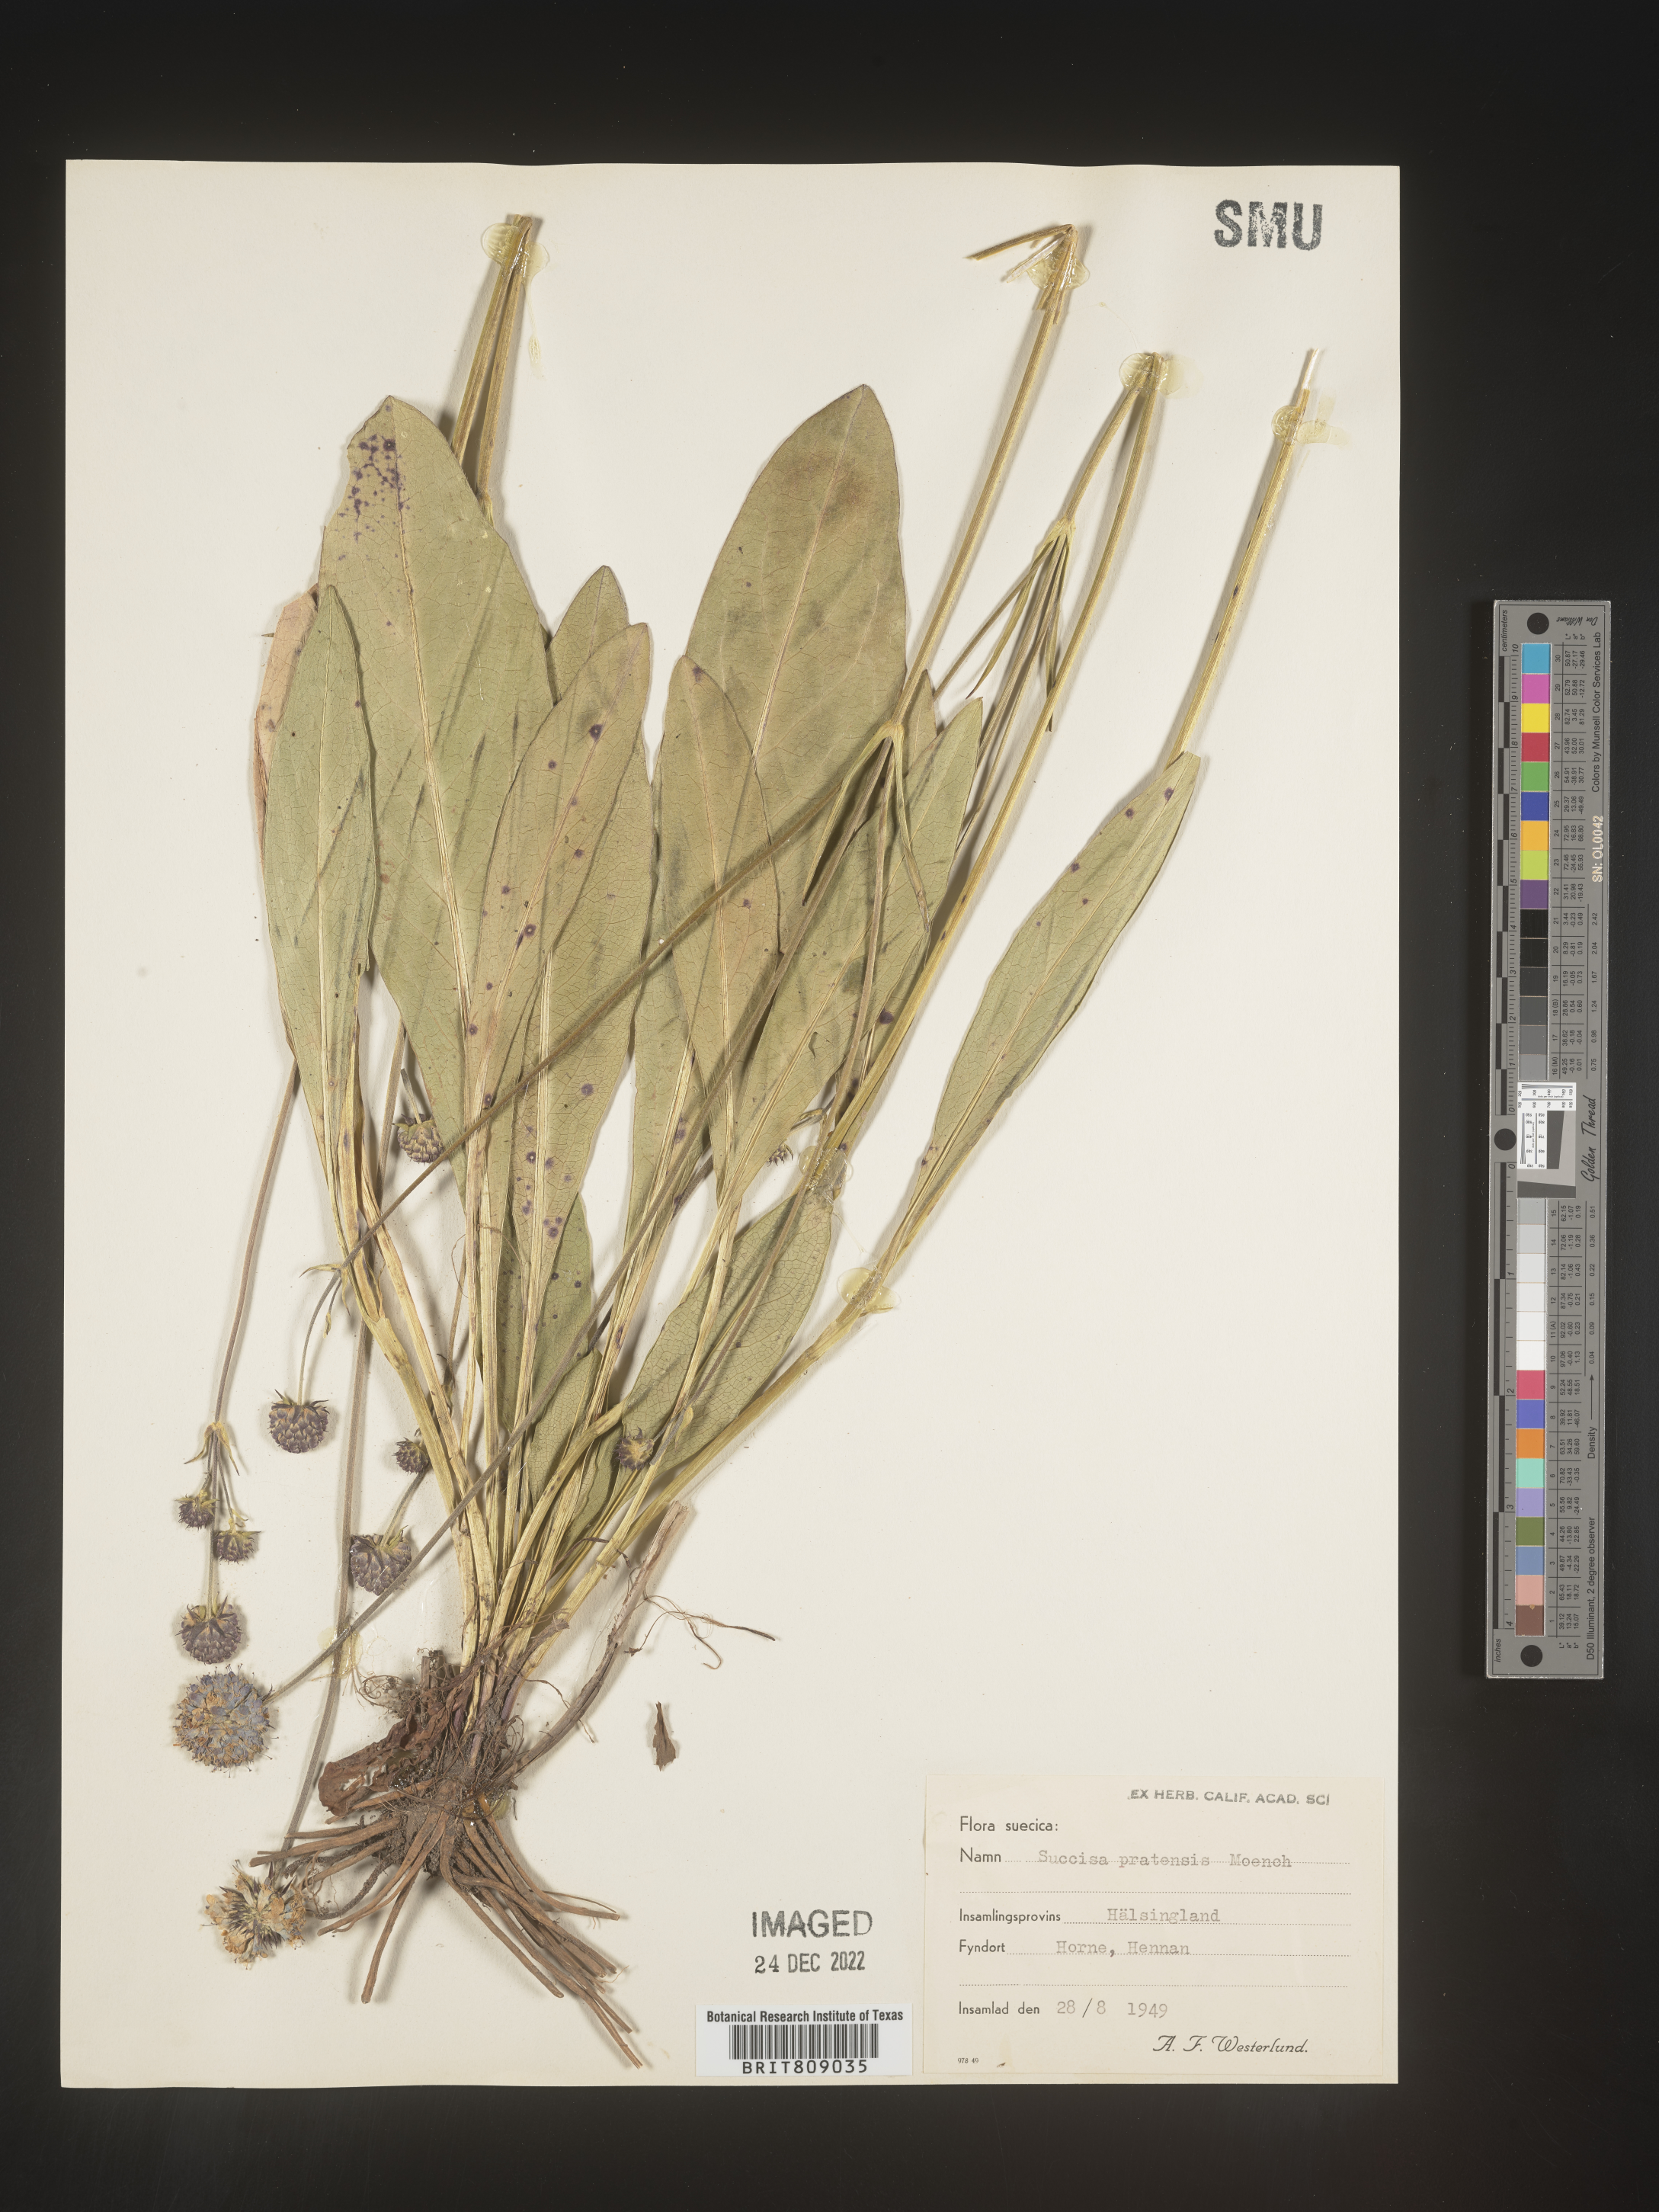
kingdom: Plantae
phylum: Tracheophyta
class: Magnoliopsida
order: Dipsacales
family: Caprifoliaceae
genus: Succisa
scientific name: Succisa
